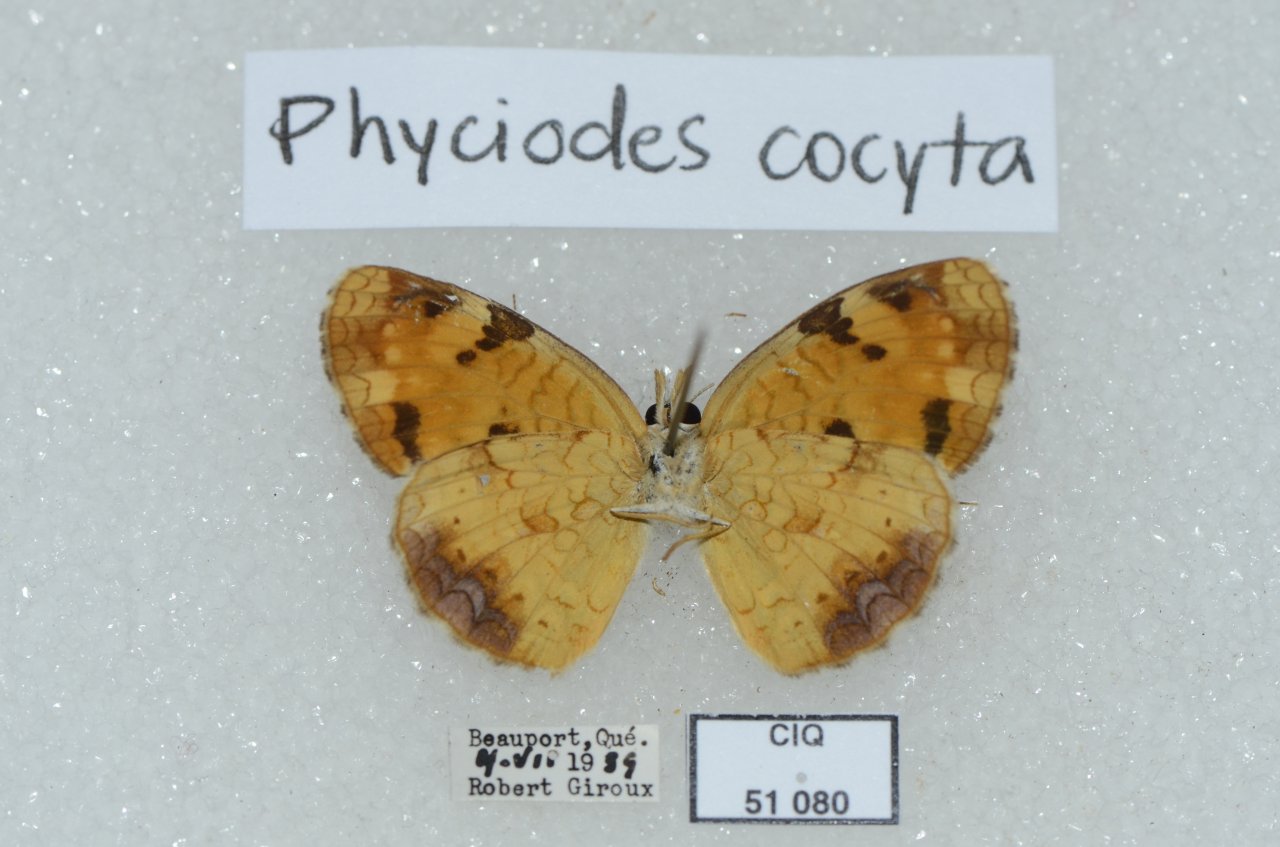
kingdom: Animalia
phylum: Arthropoda
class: Insecta
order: Lepidoptera
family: Nymphalidae
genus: Phyciodes
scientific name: Phyciodes tharos
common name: Northern Crescent
